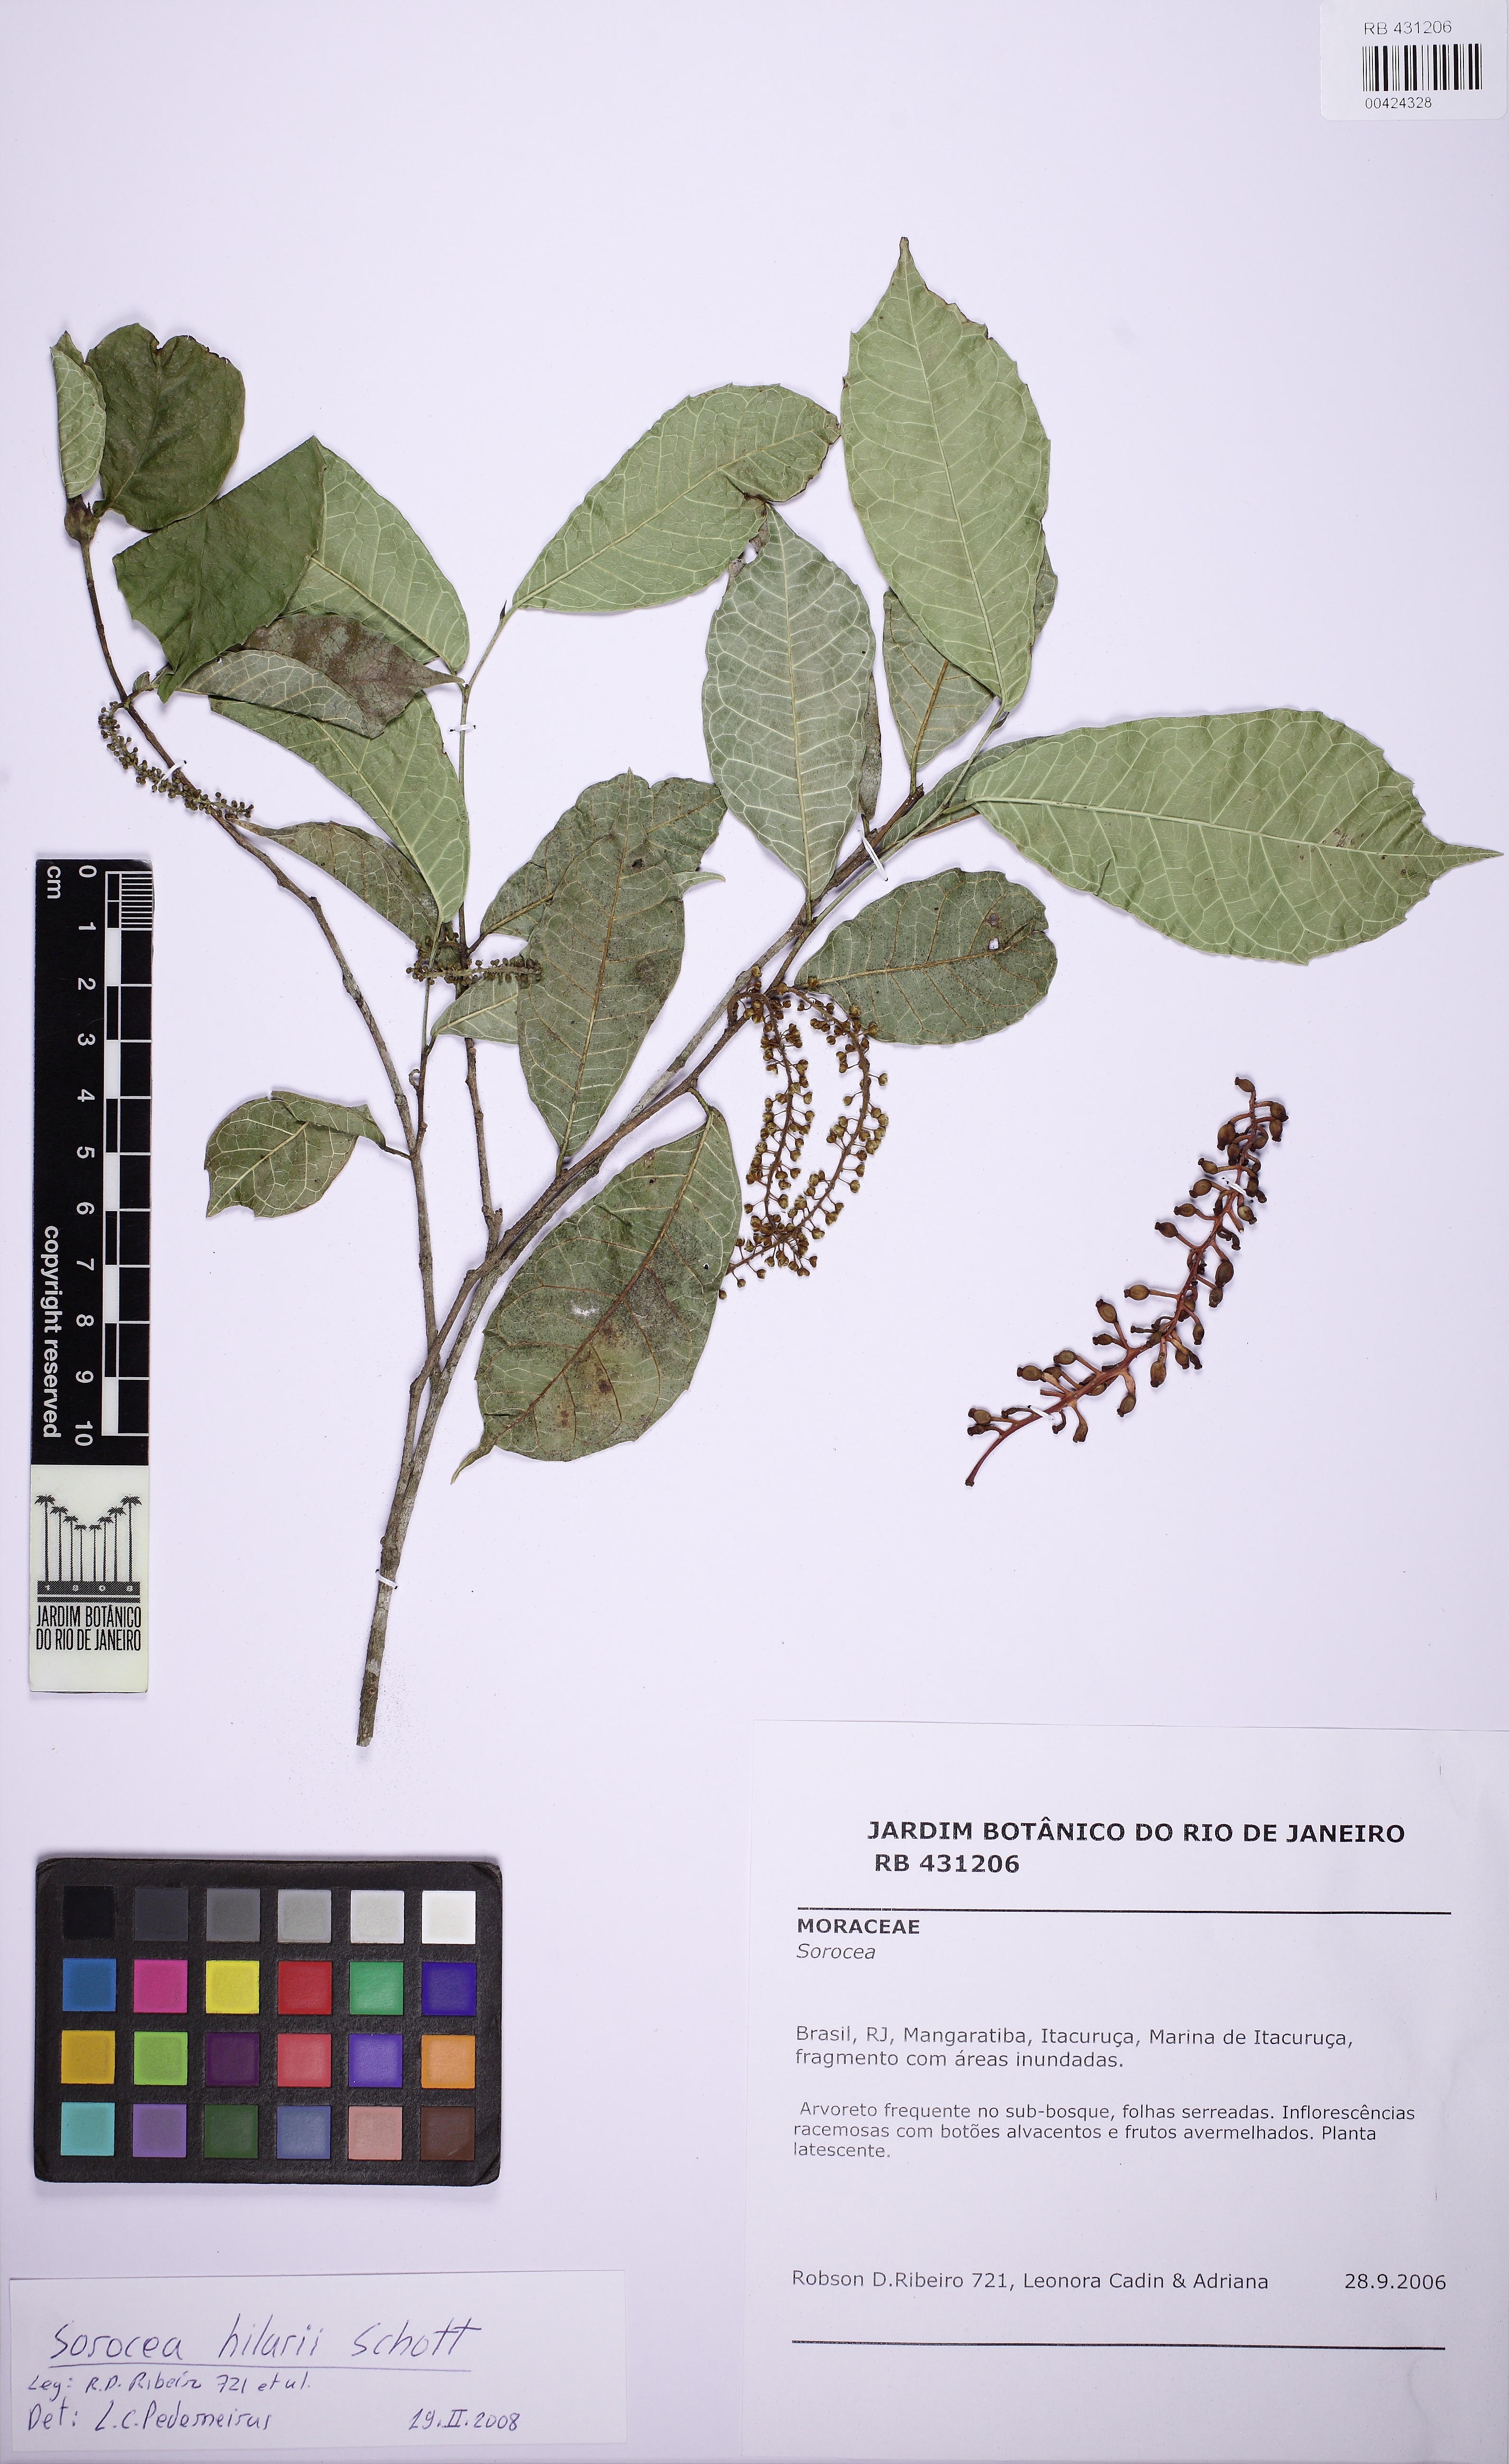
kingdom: Plantae
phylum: Tracheophyta
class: Magnoliopsida
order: Rosales
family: Moraceae
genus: Sorocea
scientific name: Sorocea hilarii
